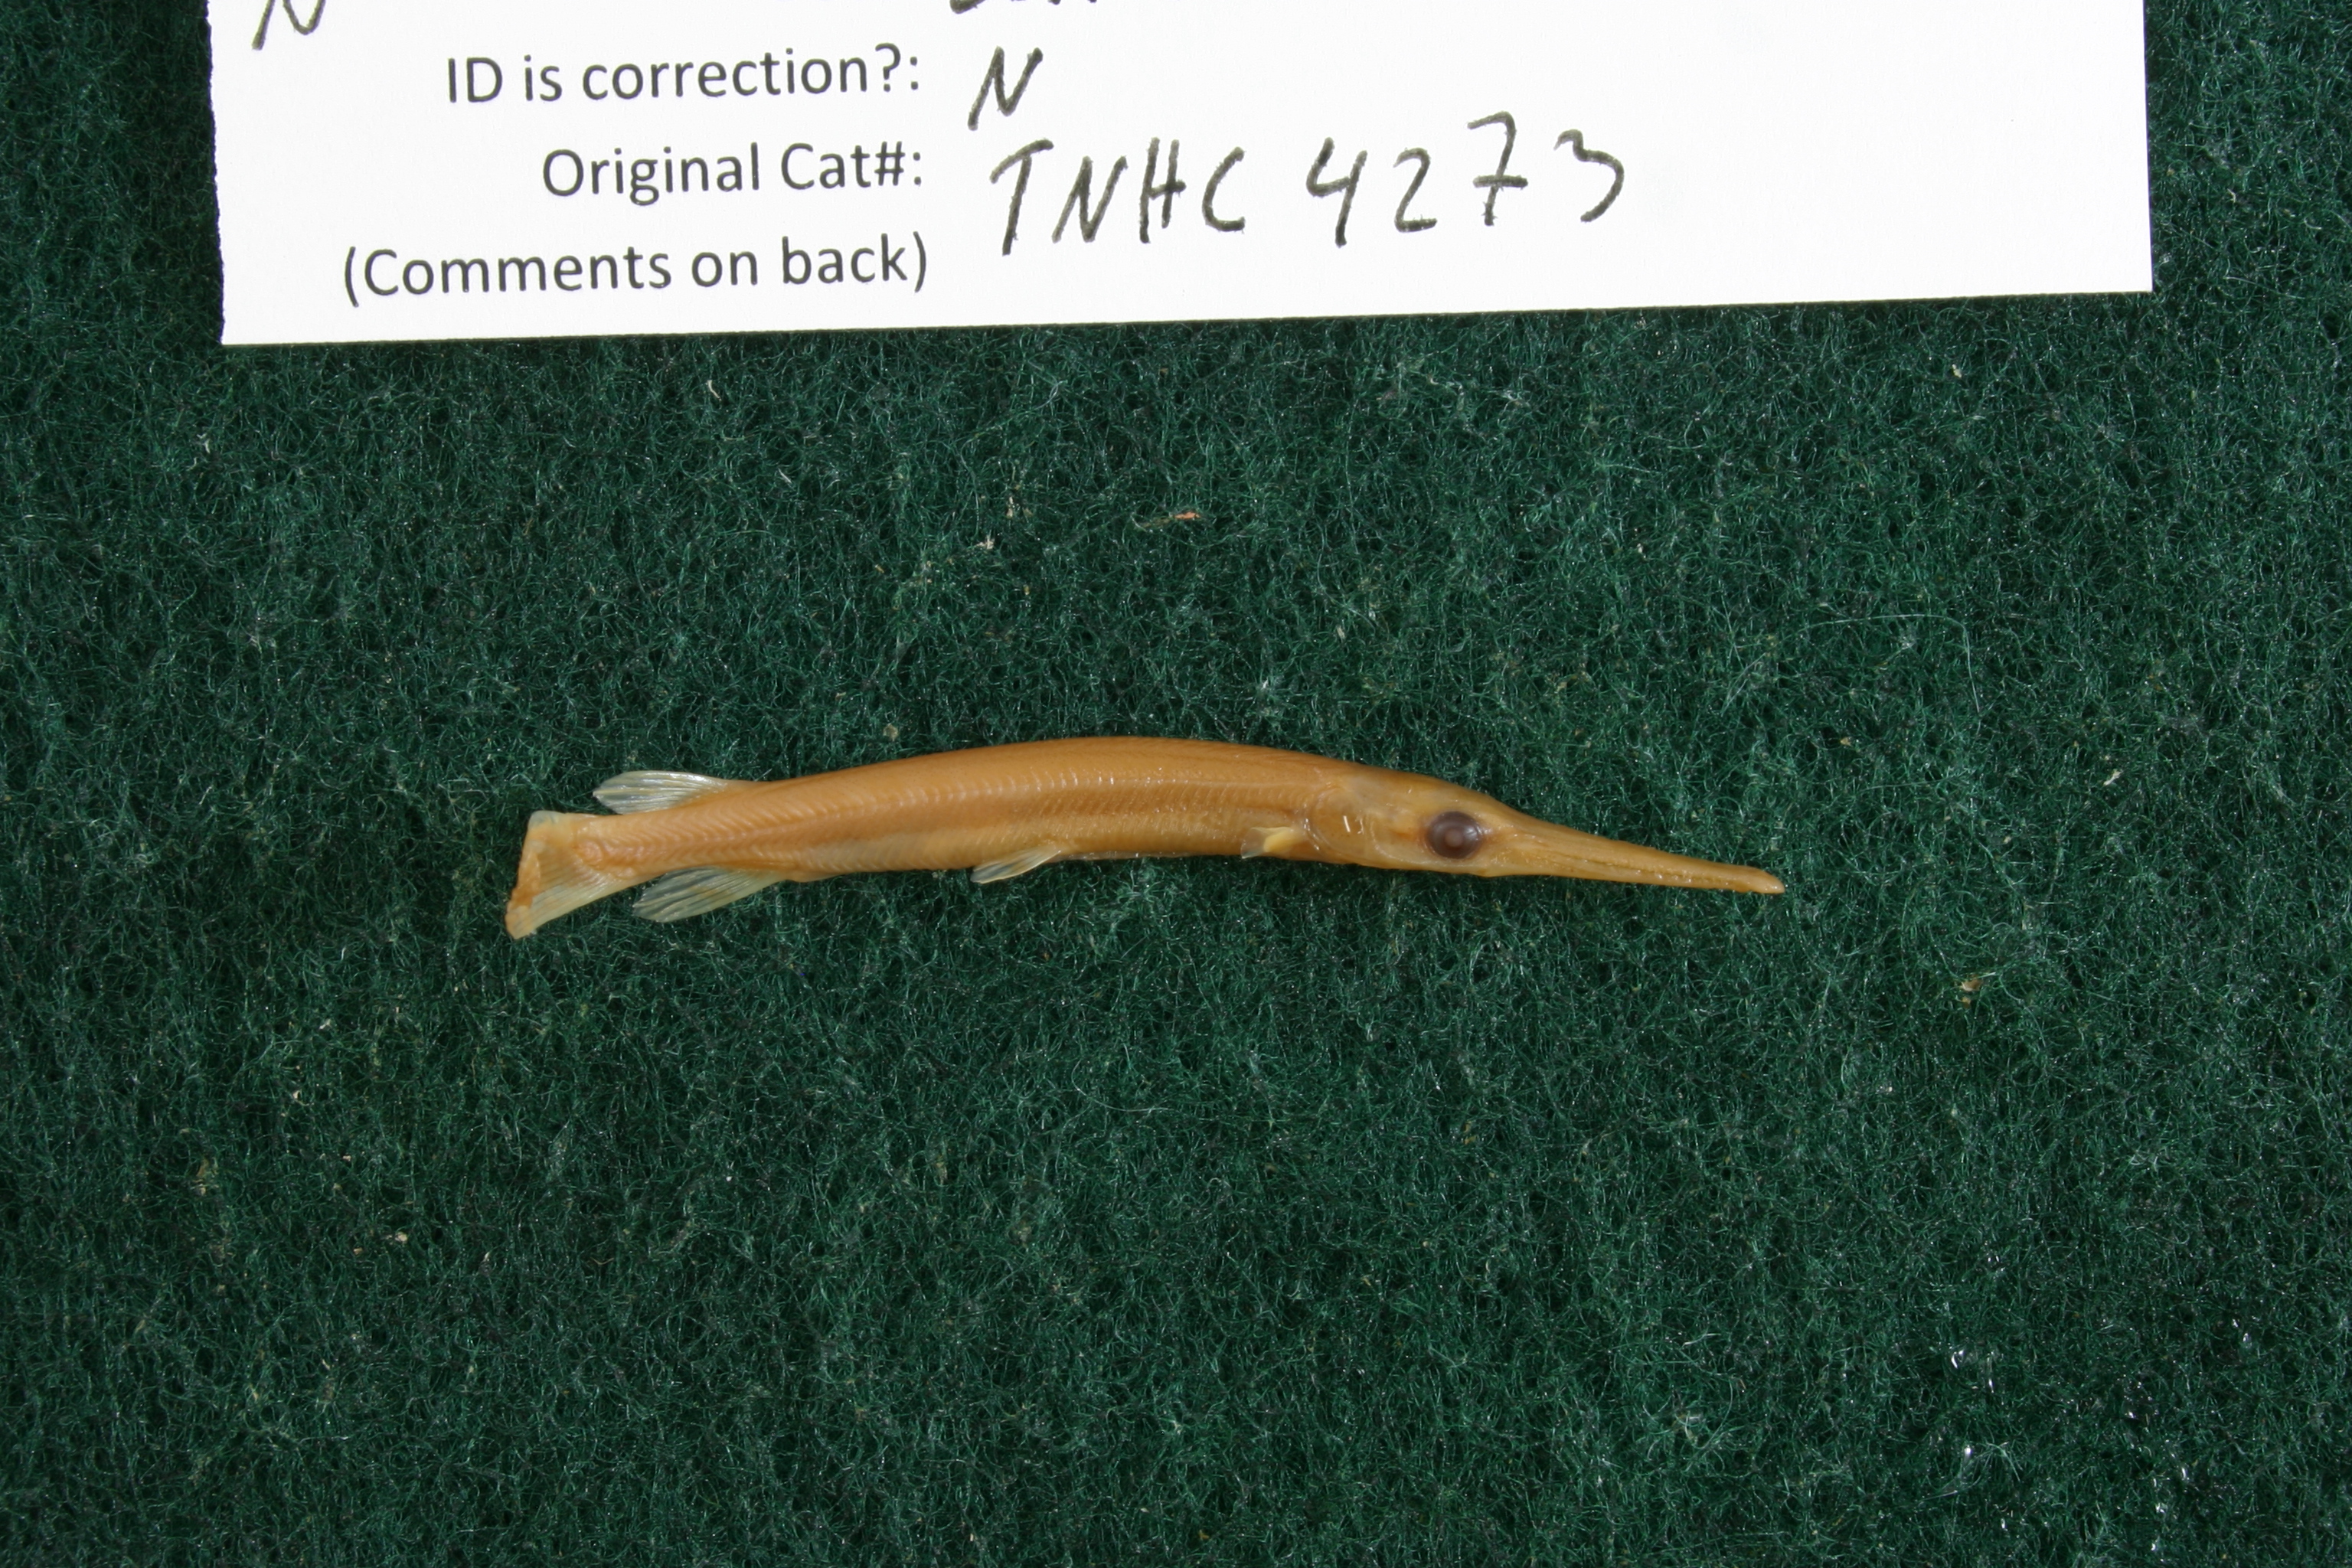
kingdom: Animalia
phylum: Chordata
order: Lepisosteiformes
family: Lepisosteidae
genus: Lepisosteus
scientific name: Lepisosteus osseus
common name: Longnose gar
